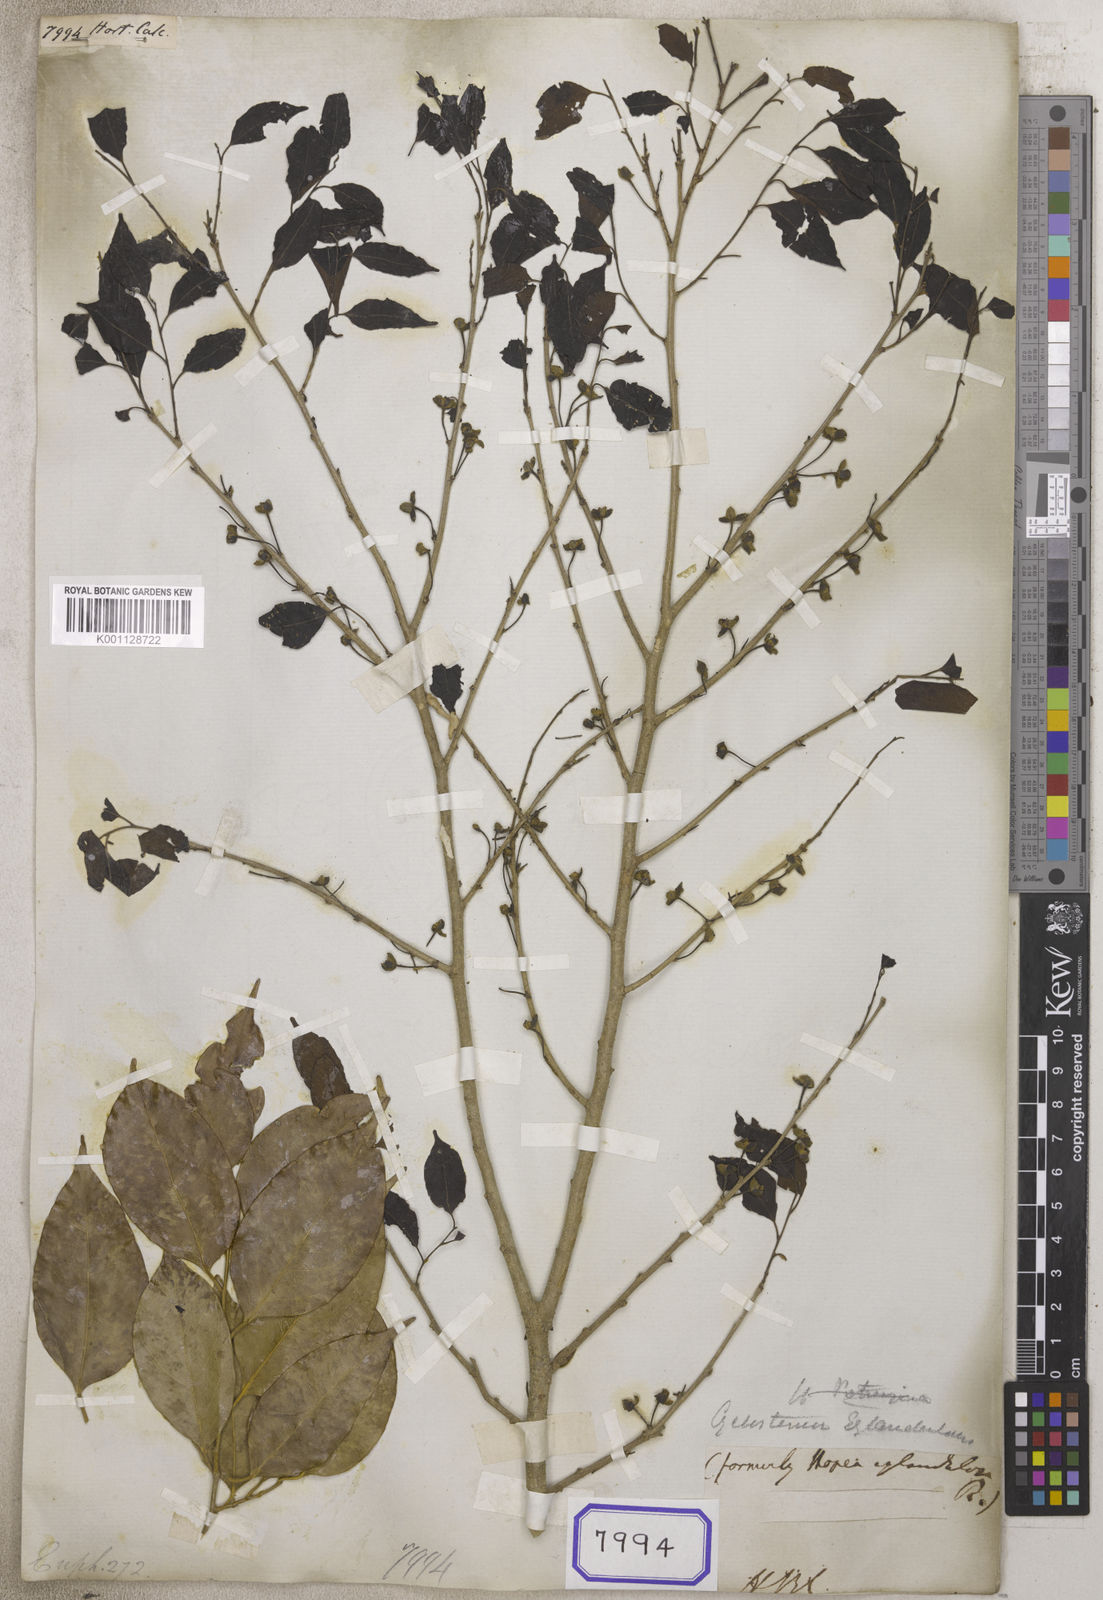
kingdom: Plantae
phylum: Tracheophyta
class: Magnoliopsida
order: Malpighiales
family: Euphorbiaceae
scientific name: Euphorbiaceae
